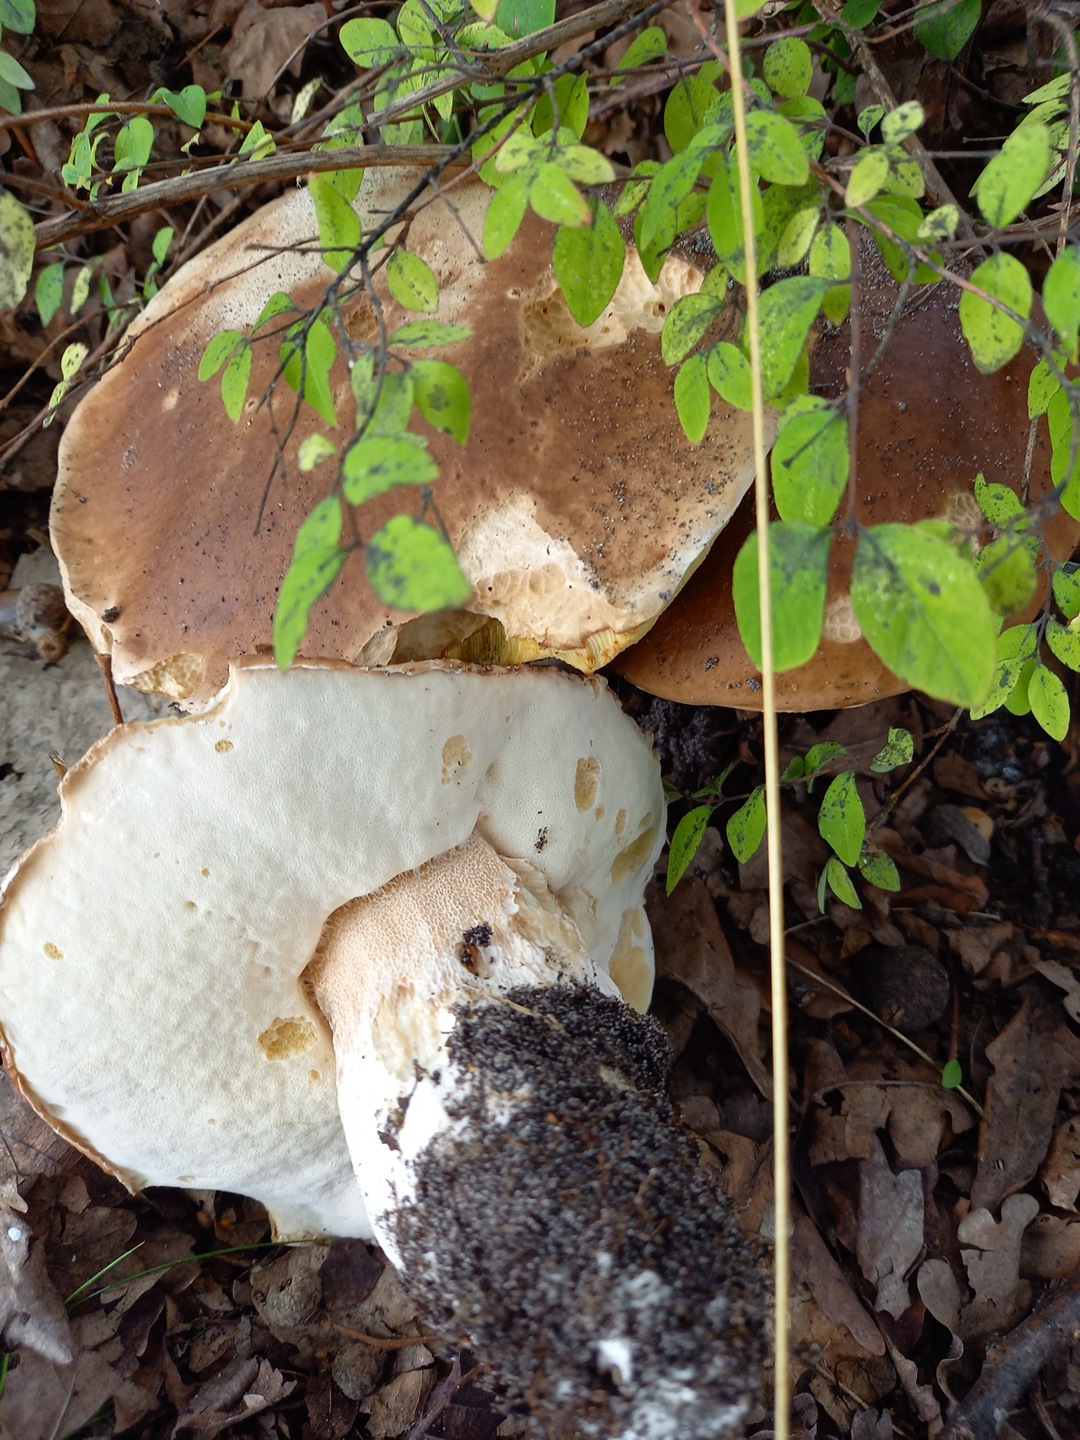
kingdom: Fungi
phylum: Basidiomycota
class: Agaricomycetes
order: Boletales
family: Boletaceae
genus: Boletus
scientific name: Boletus edulis
